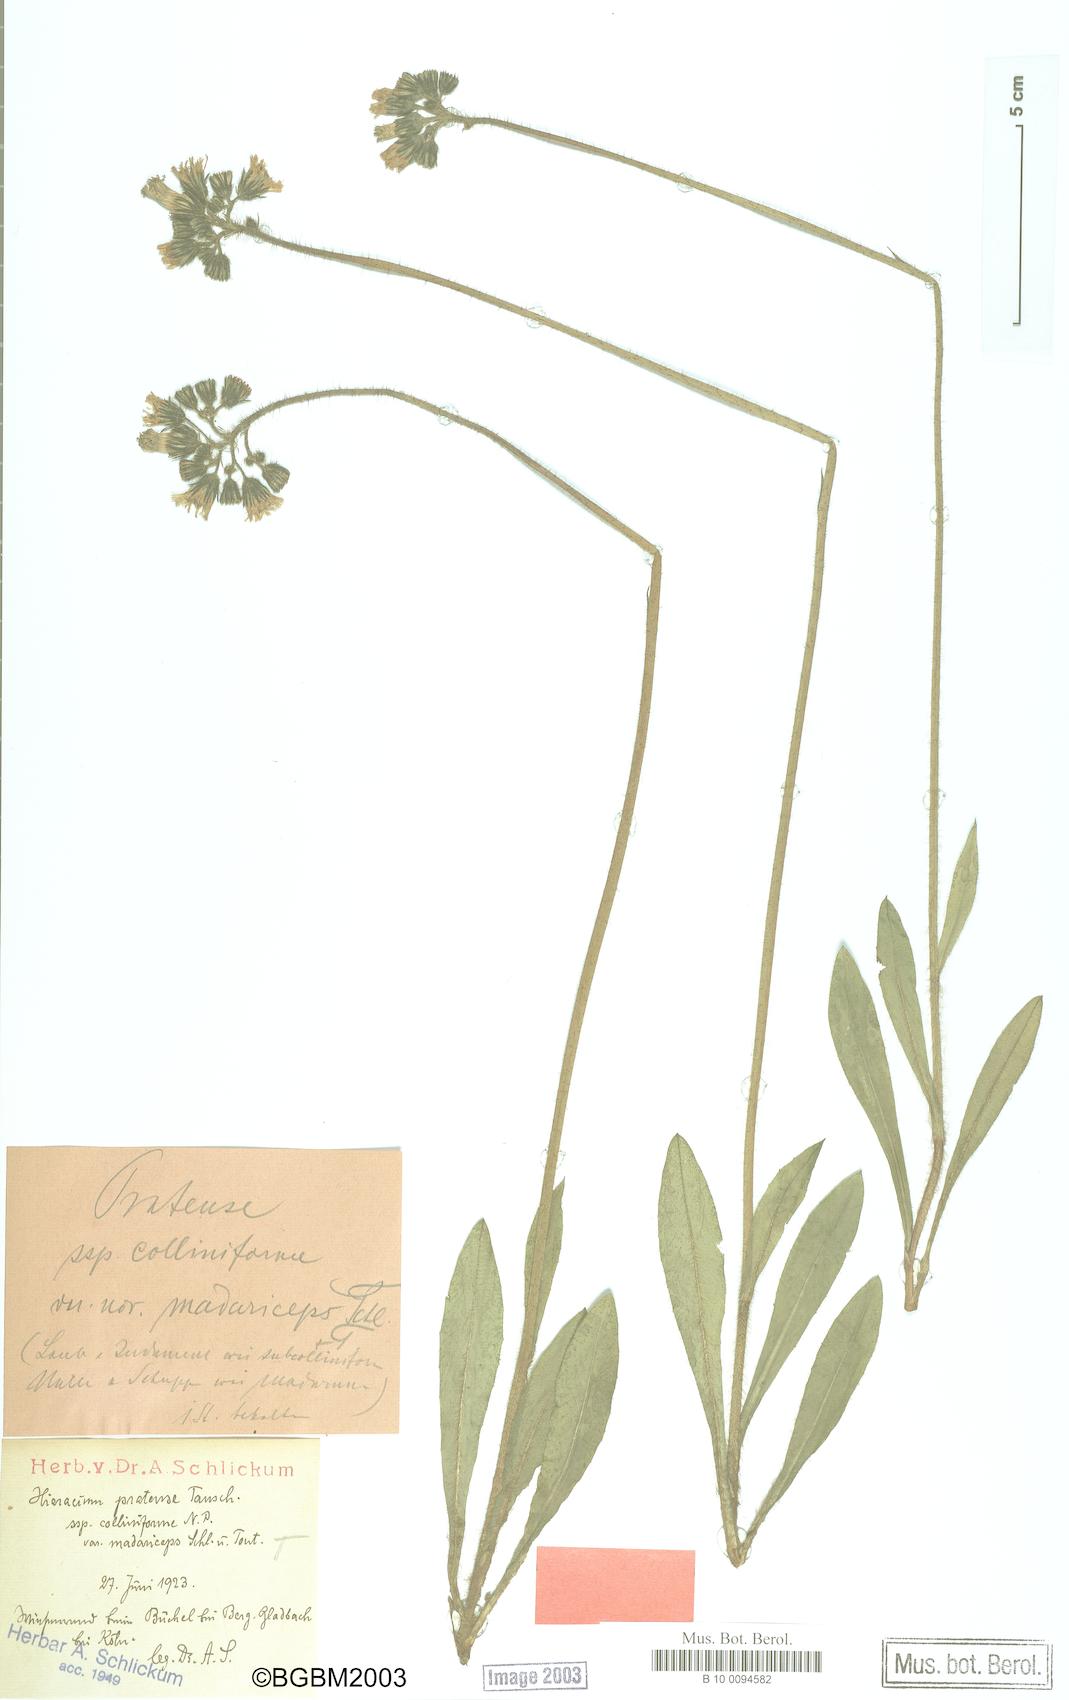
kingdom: Plantae
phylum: Tracheophyta
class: Magnoliopsida
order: Asterales
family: Asteraceae
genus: Pilosella
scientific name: Pilosella caespitosa
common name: Yellow fox-and-cubs
